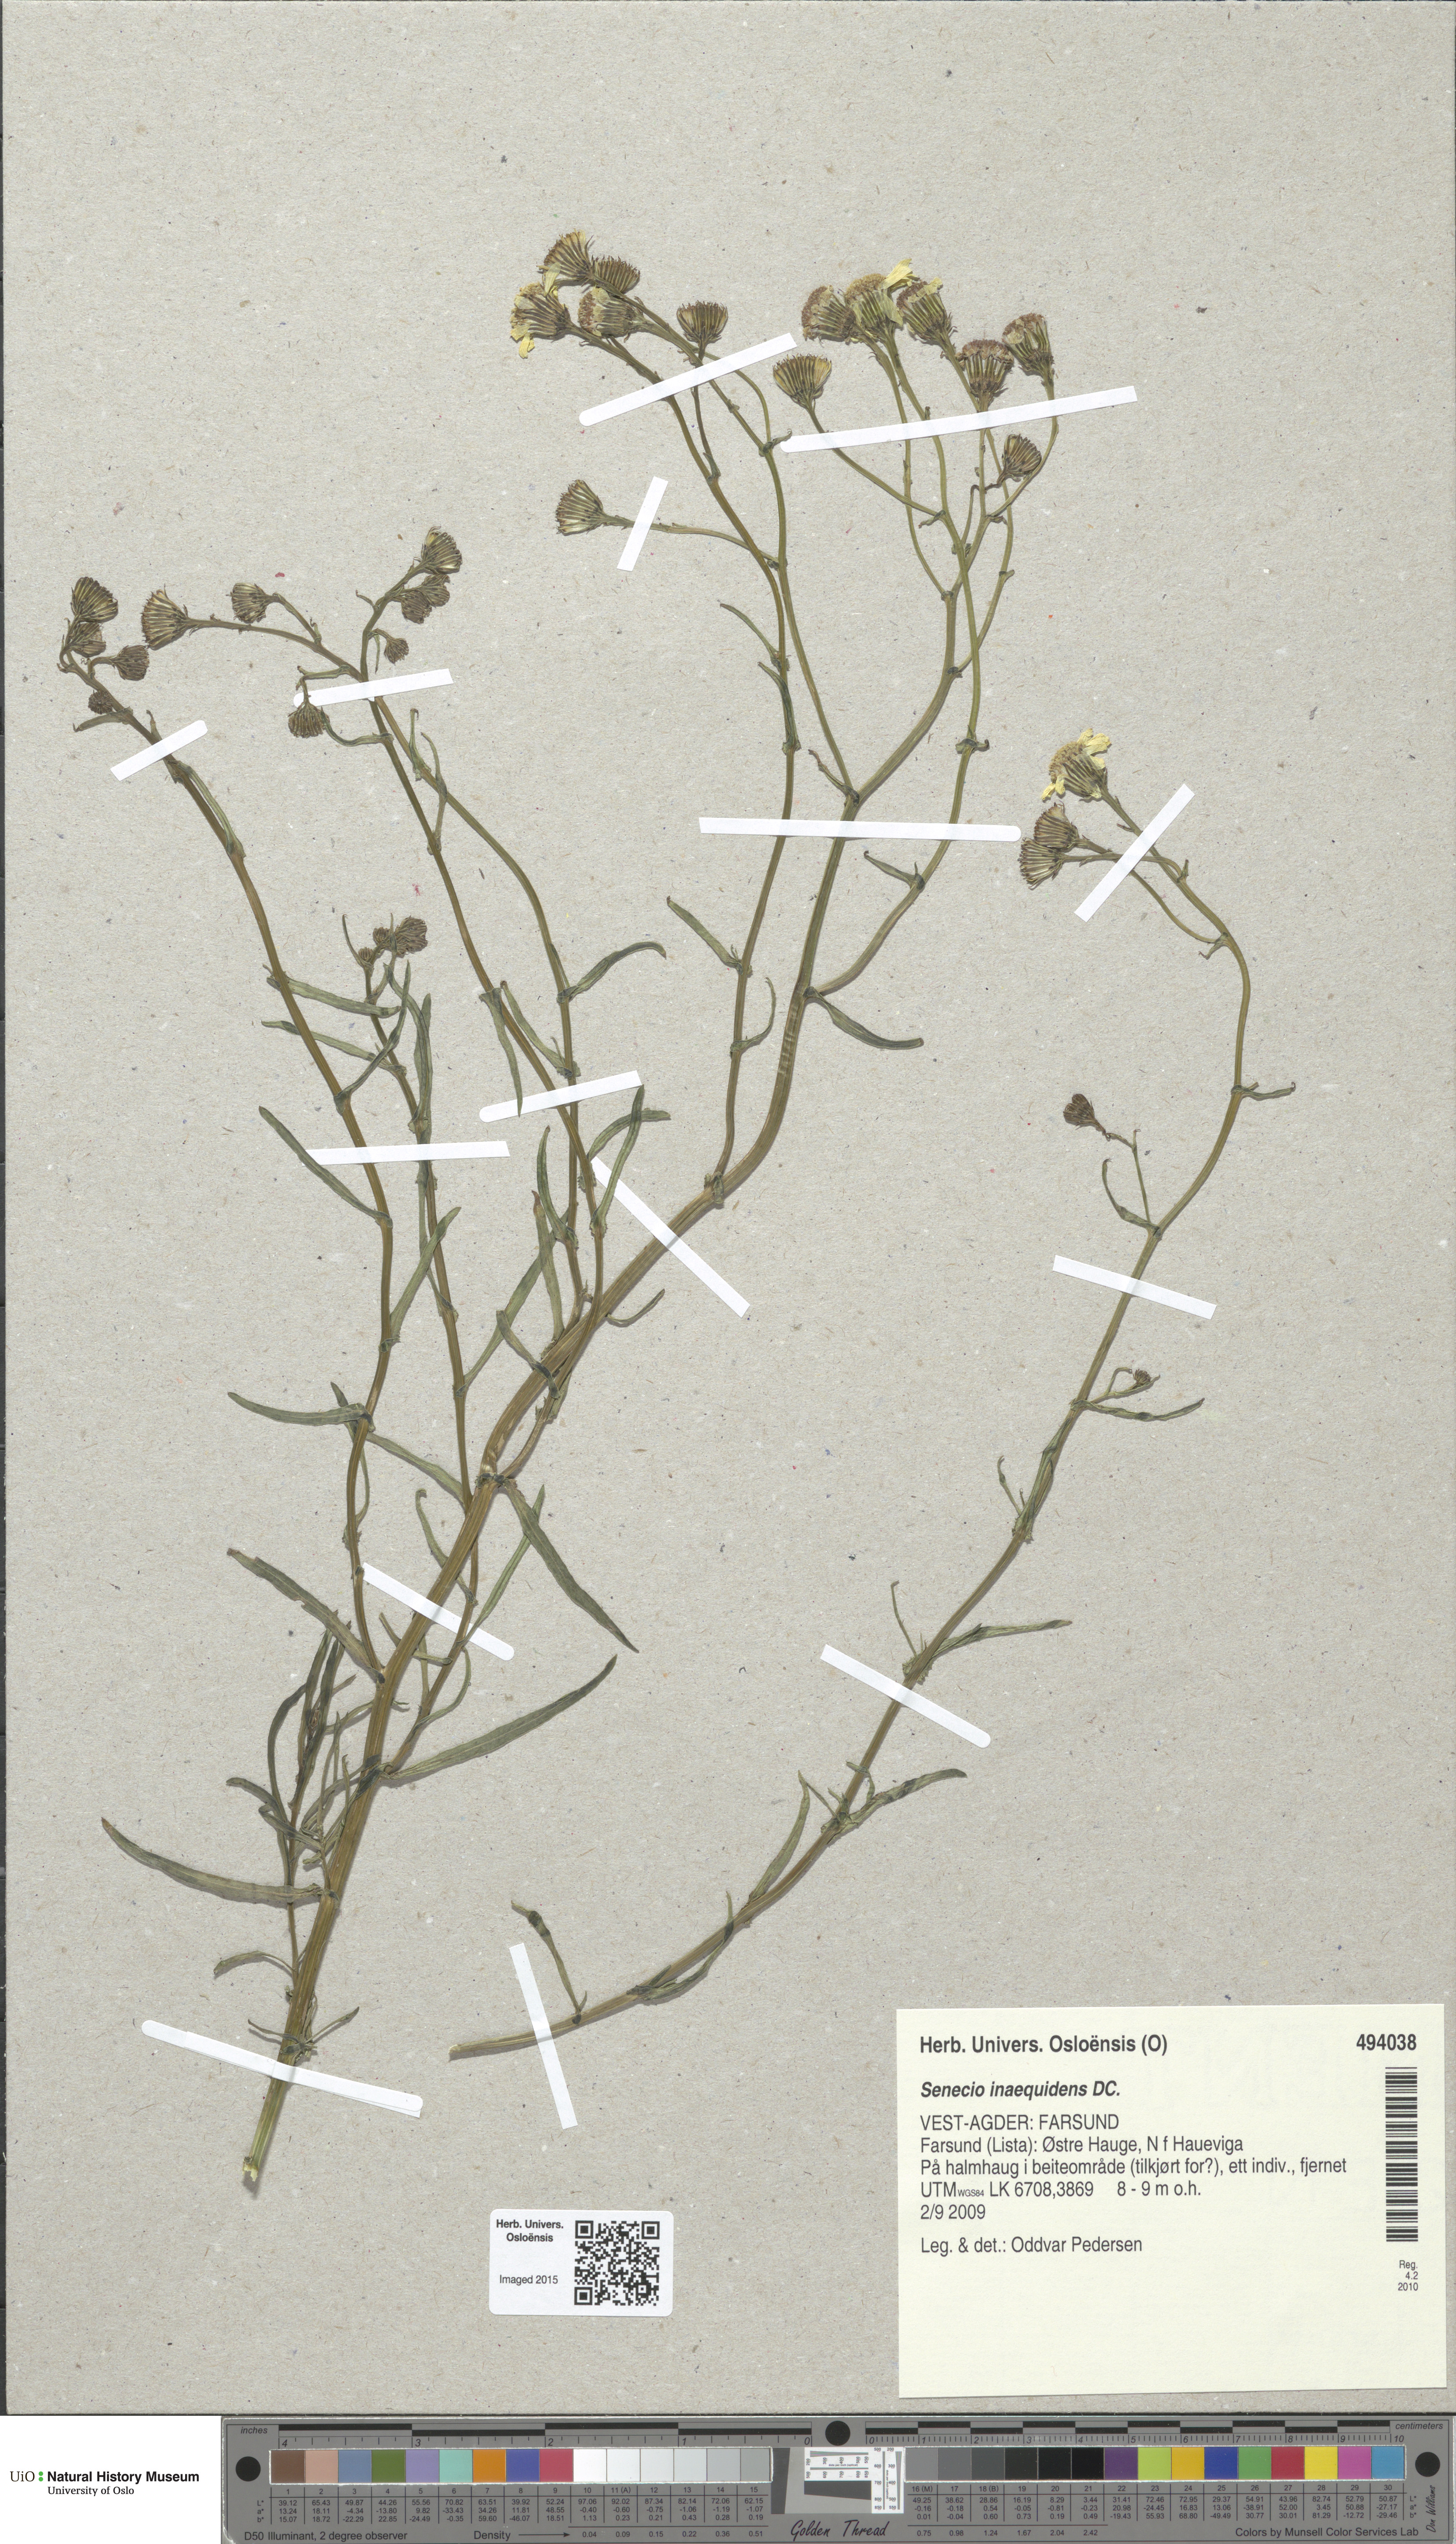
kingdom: Plantae
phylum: Tracheophyta
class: Magnoliopsida
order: Asterales
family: Asteraceae
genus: Senecio
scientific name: Senecio inaequidens
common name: Narrow-leaved ragwort
